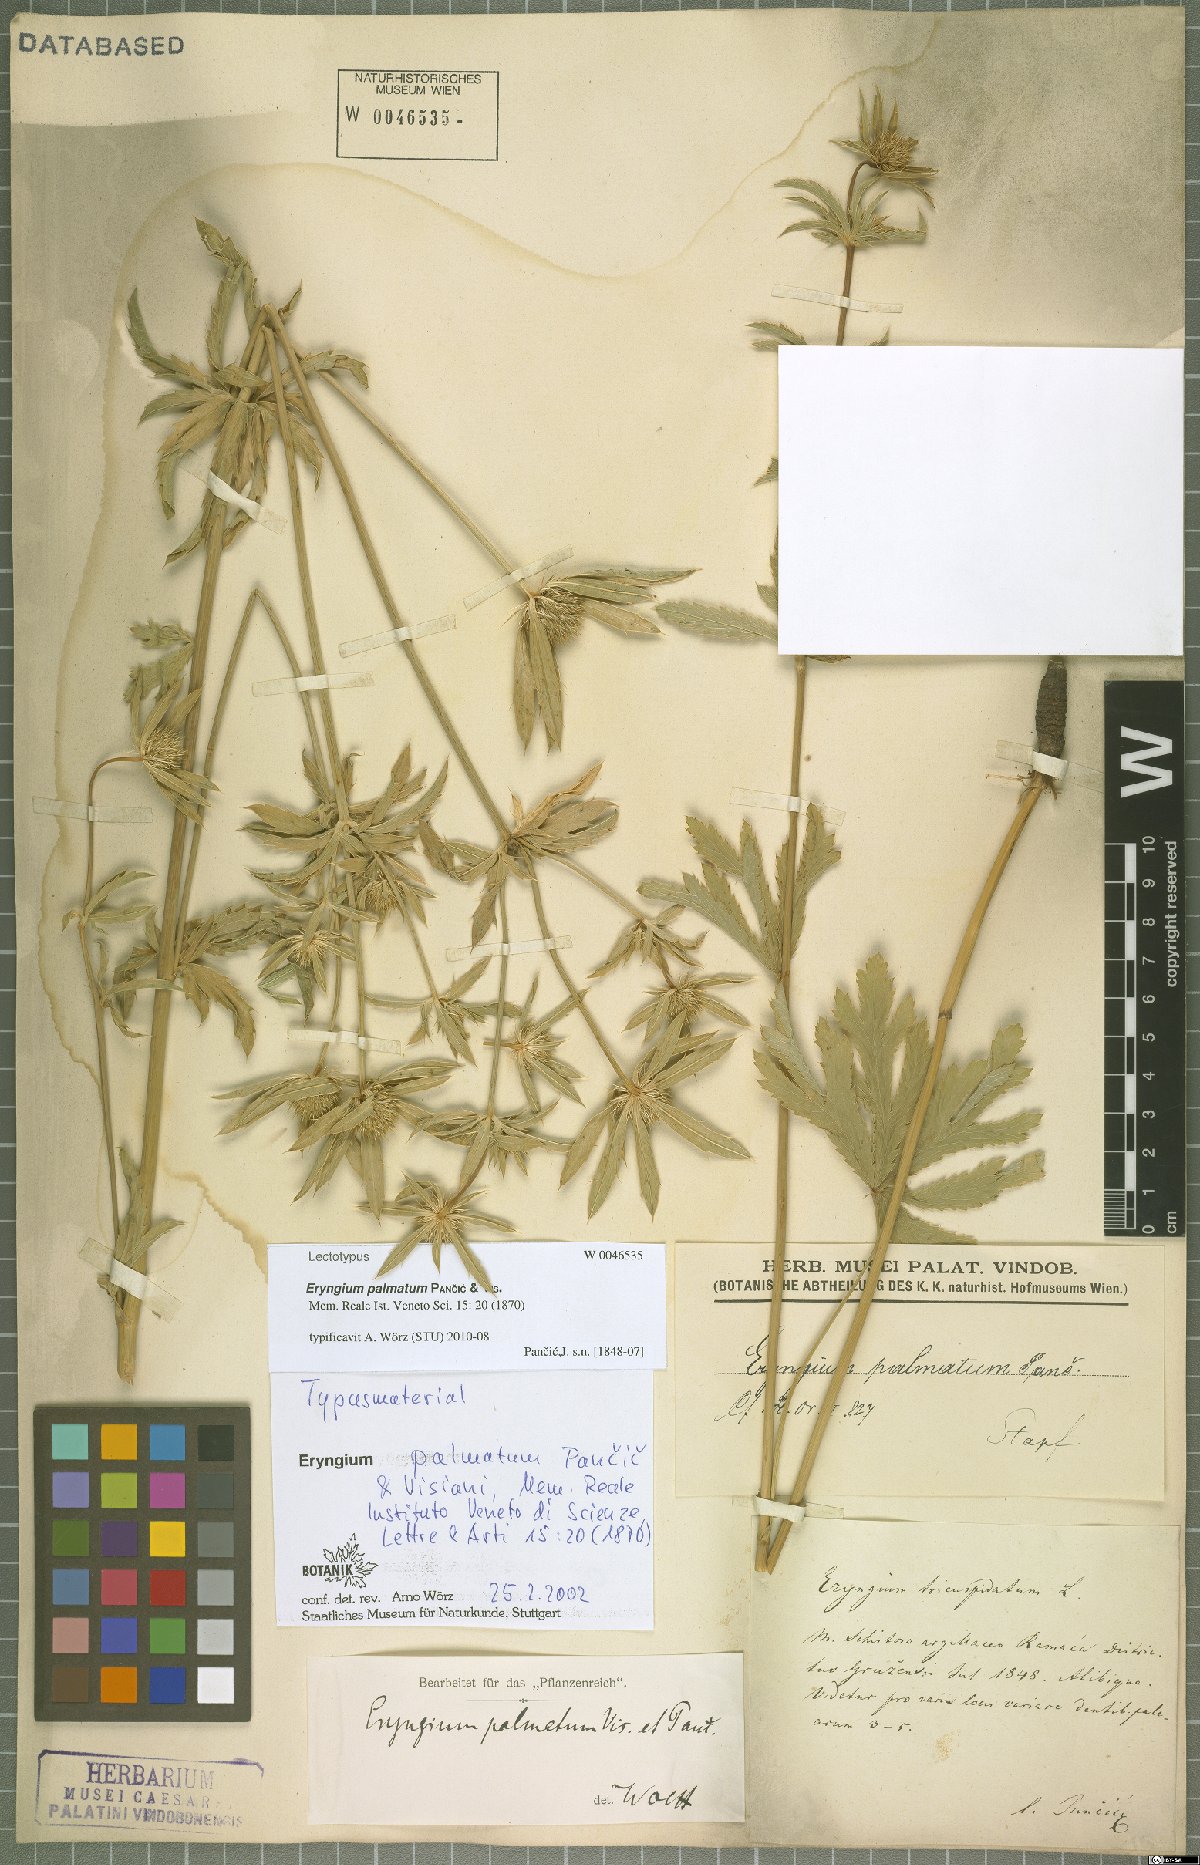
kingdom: Plantae
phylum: Tracheophyta
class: Magnoliopsida
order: Apiales
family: Apiaceae
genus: Eryngium
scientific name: Eryngium palmatum
